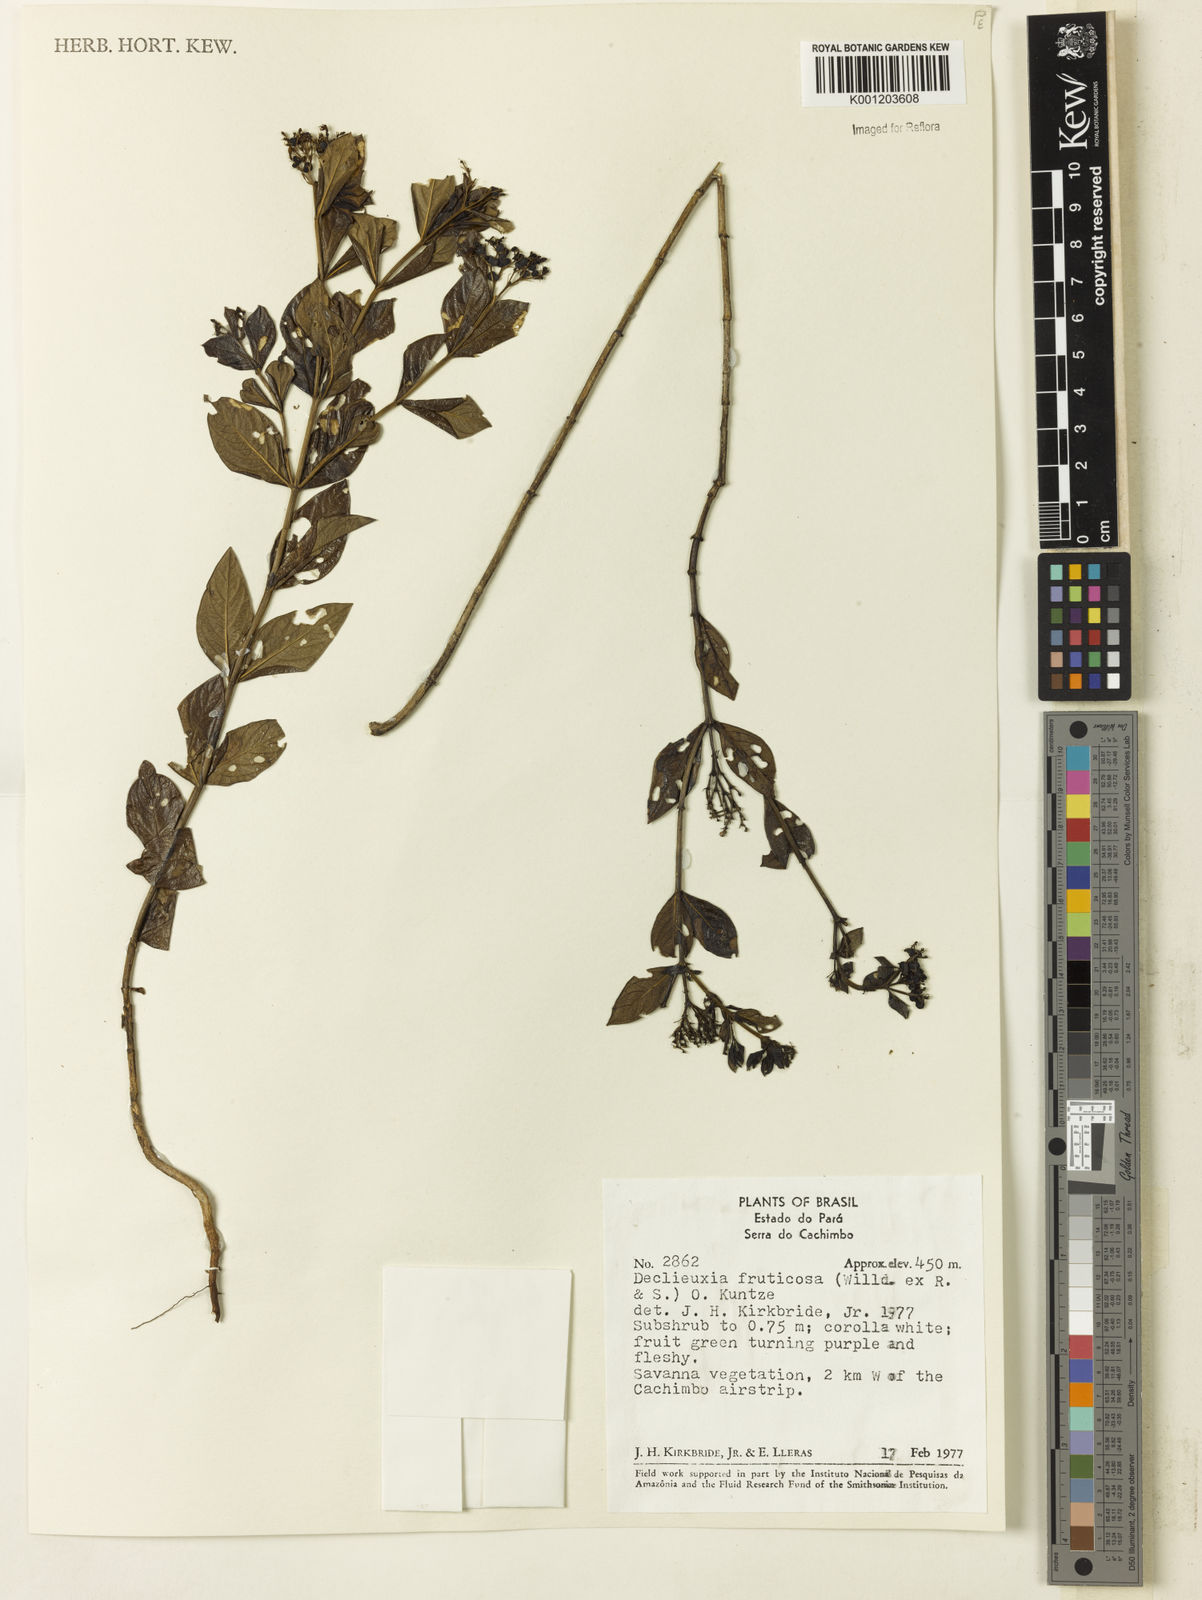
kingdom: Plantae
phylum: Tracheophyta
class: Magnoliopsida
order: Gentianales
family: Rubiaceae
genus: Declieuxia
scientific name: Declieuxia fruticosa
